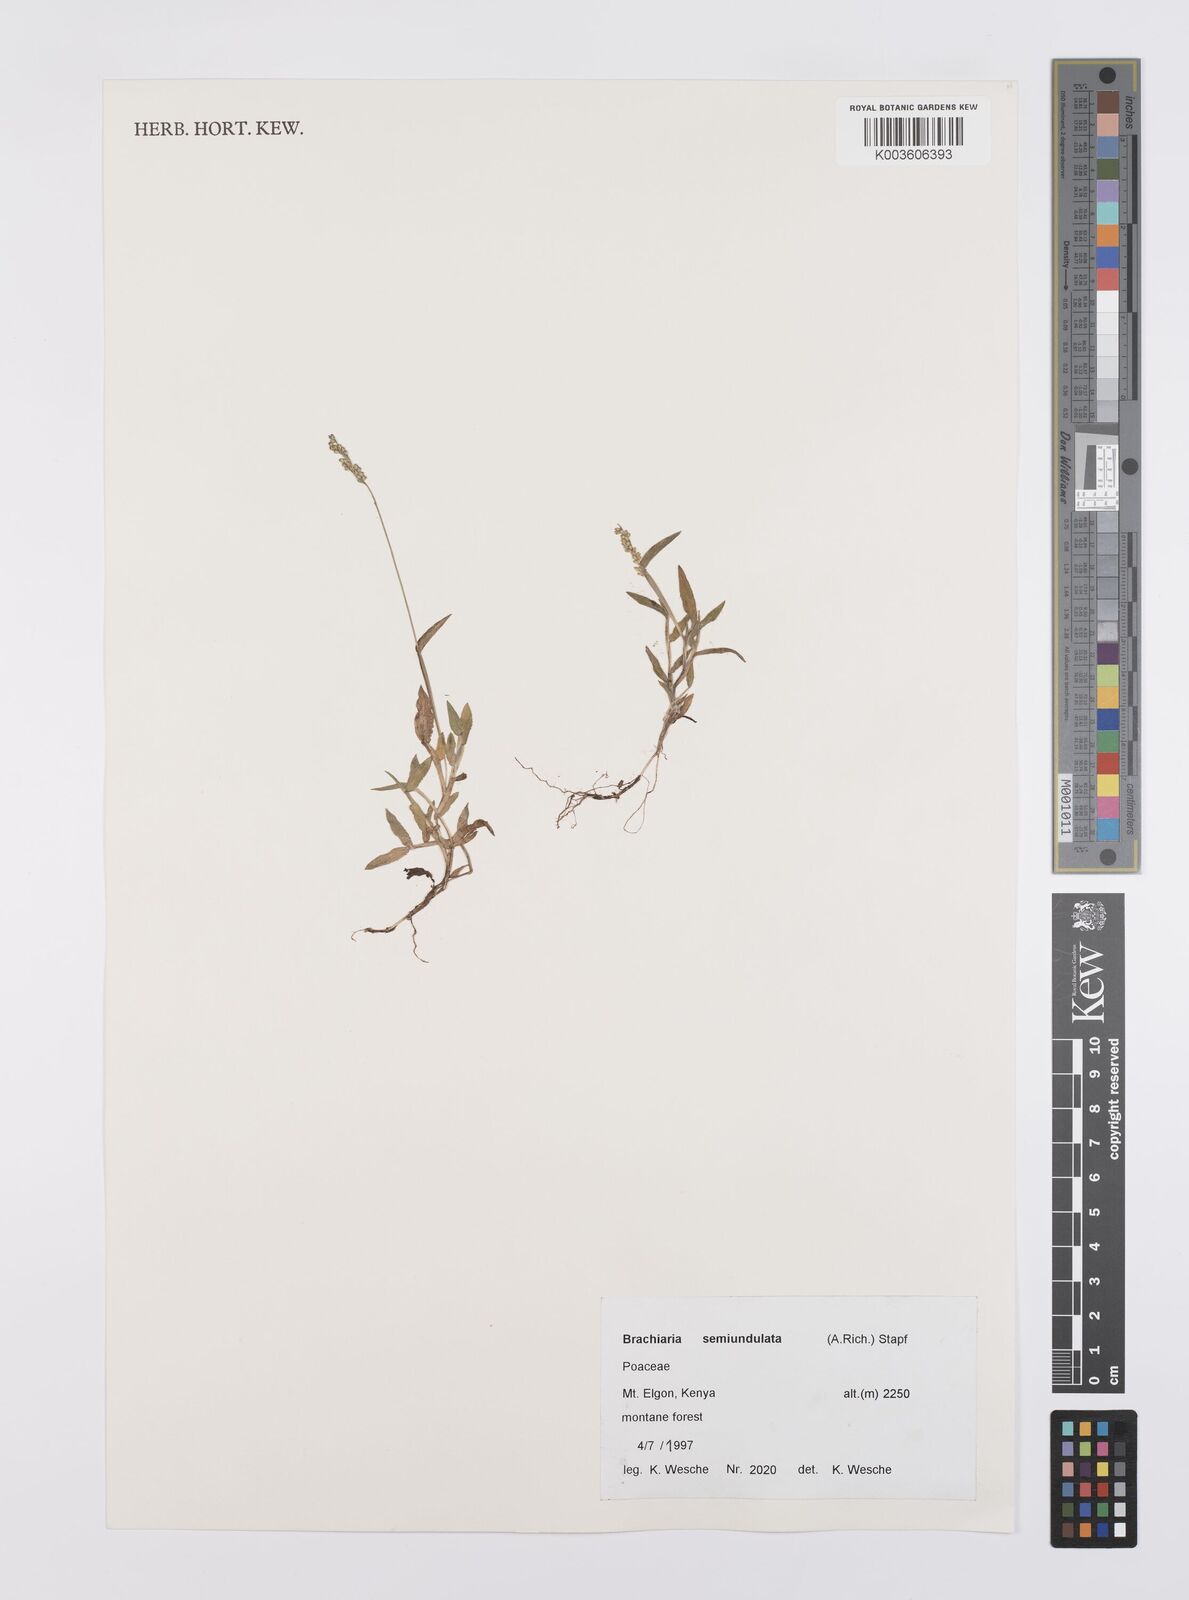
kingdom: Plantae
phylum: Tracheophyta
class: Liliopsida
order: Poales
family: Poaceae
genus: Urochloa
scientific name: Urochloa semiundulata
